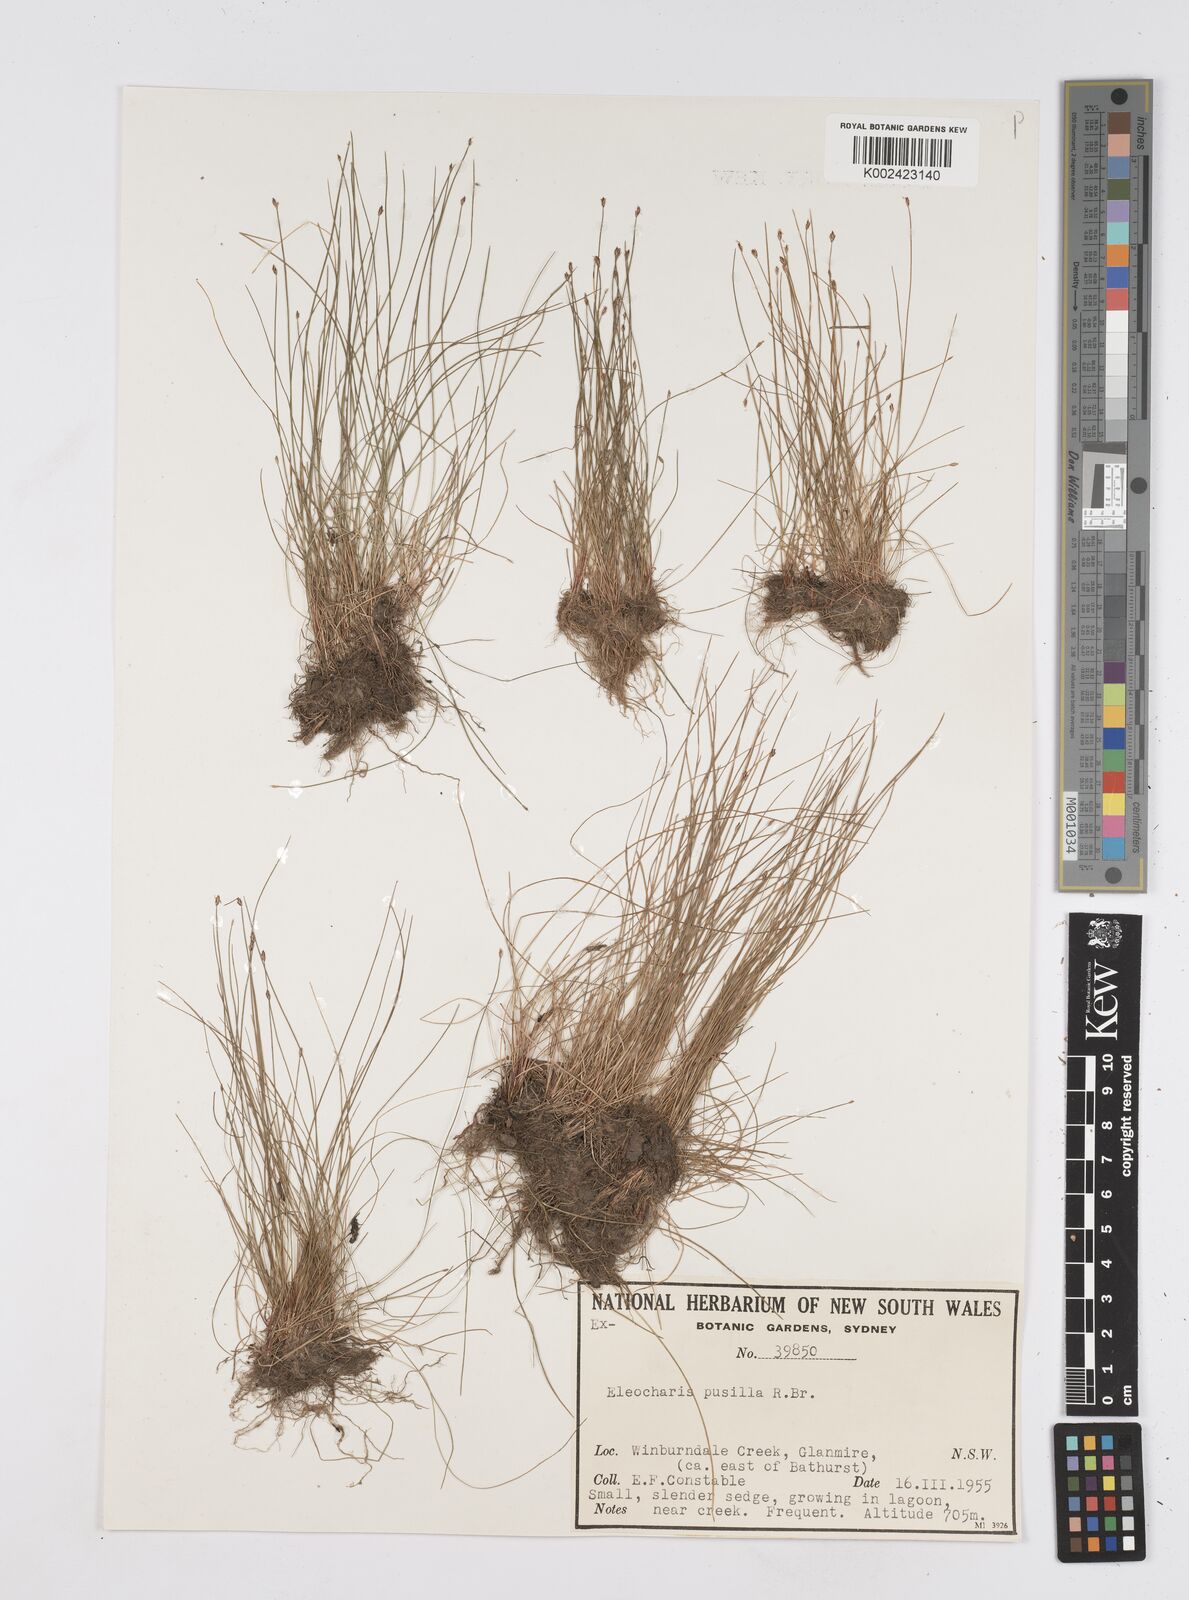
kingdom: Plantae
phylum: Tracheophyta
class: Liliopsida
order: Poales
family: Cyperaceae
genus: Eleocharis
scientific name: Eleocharis pusilla
